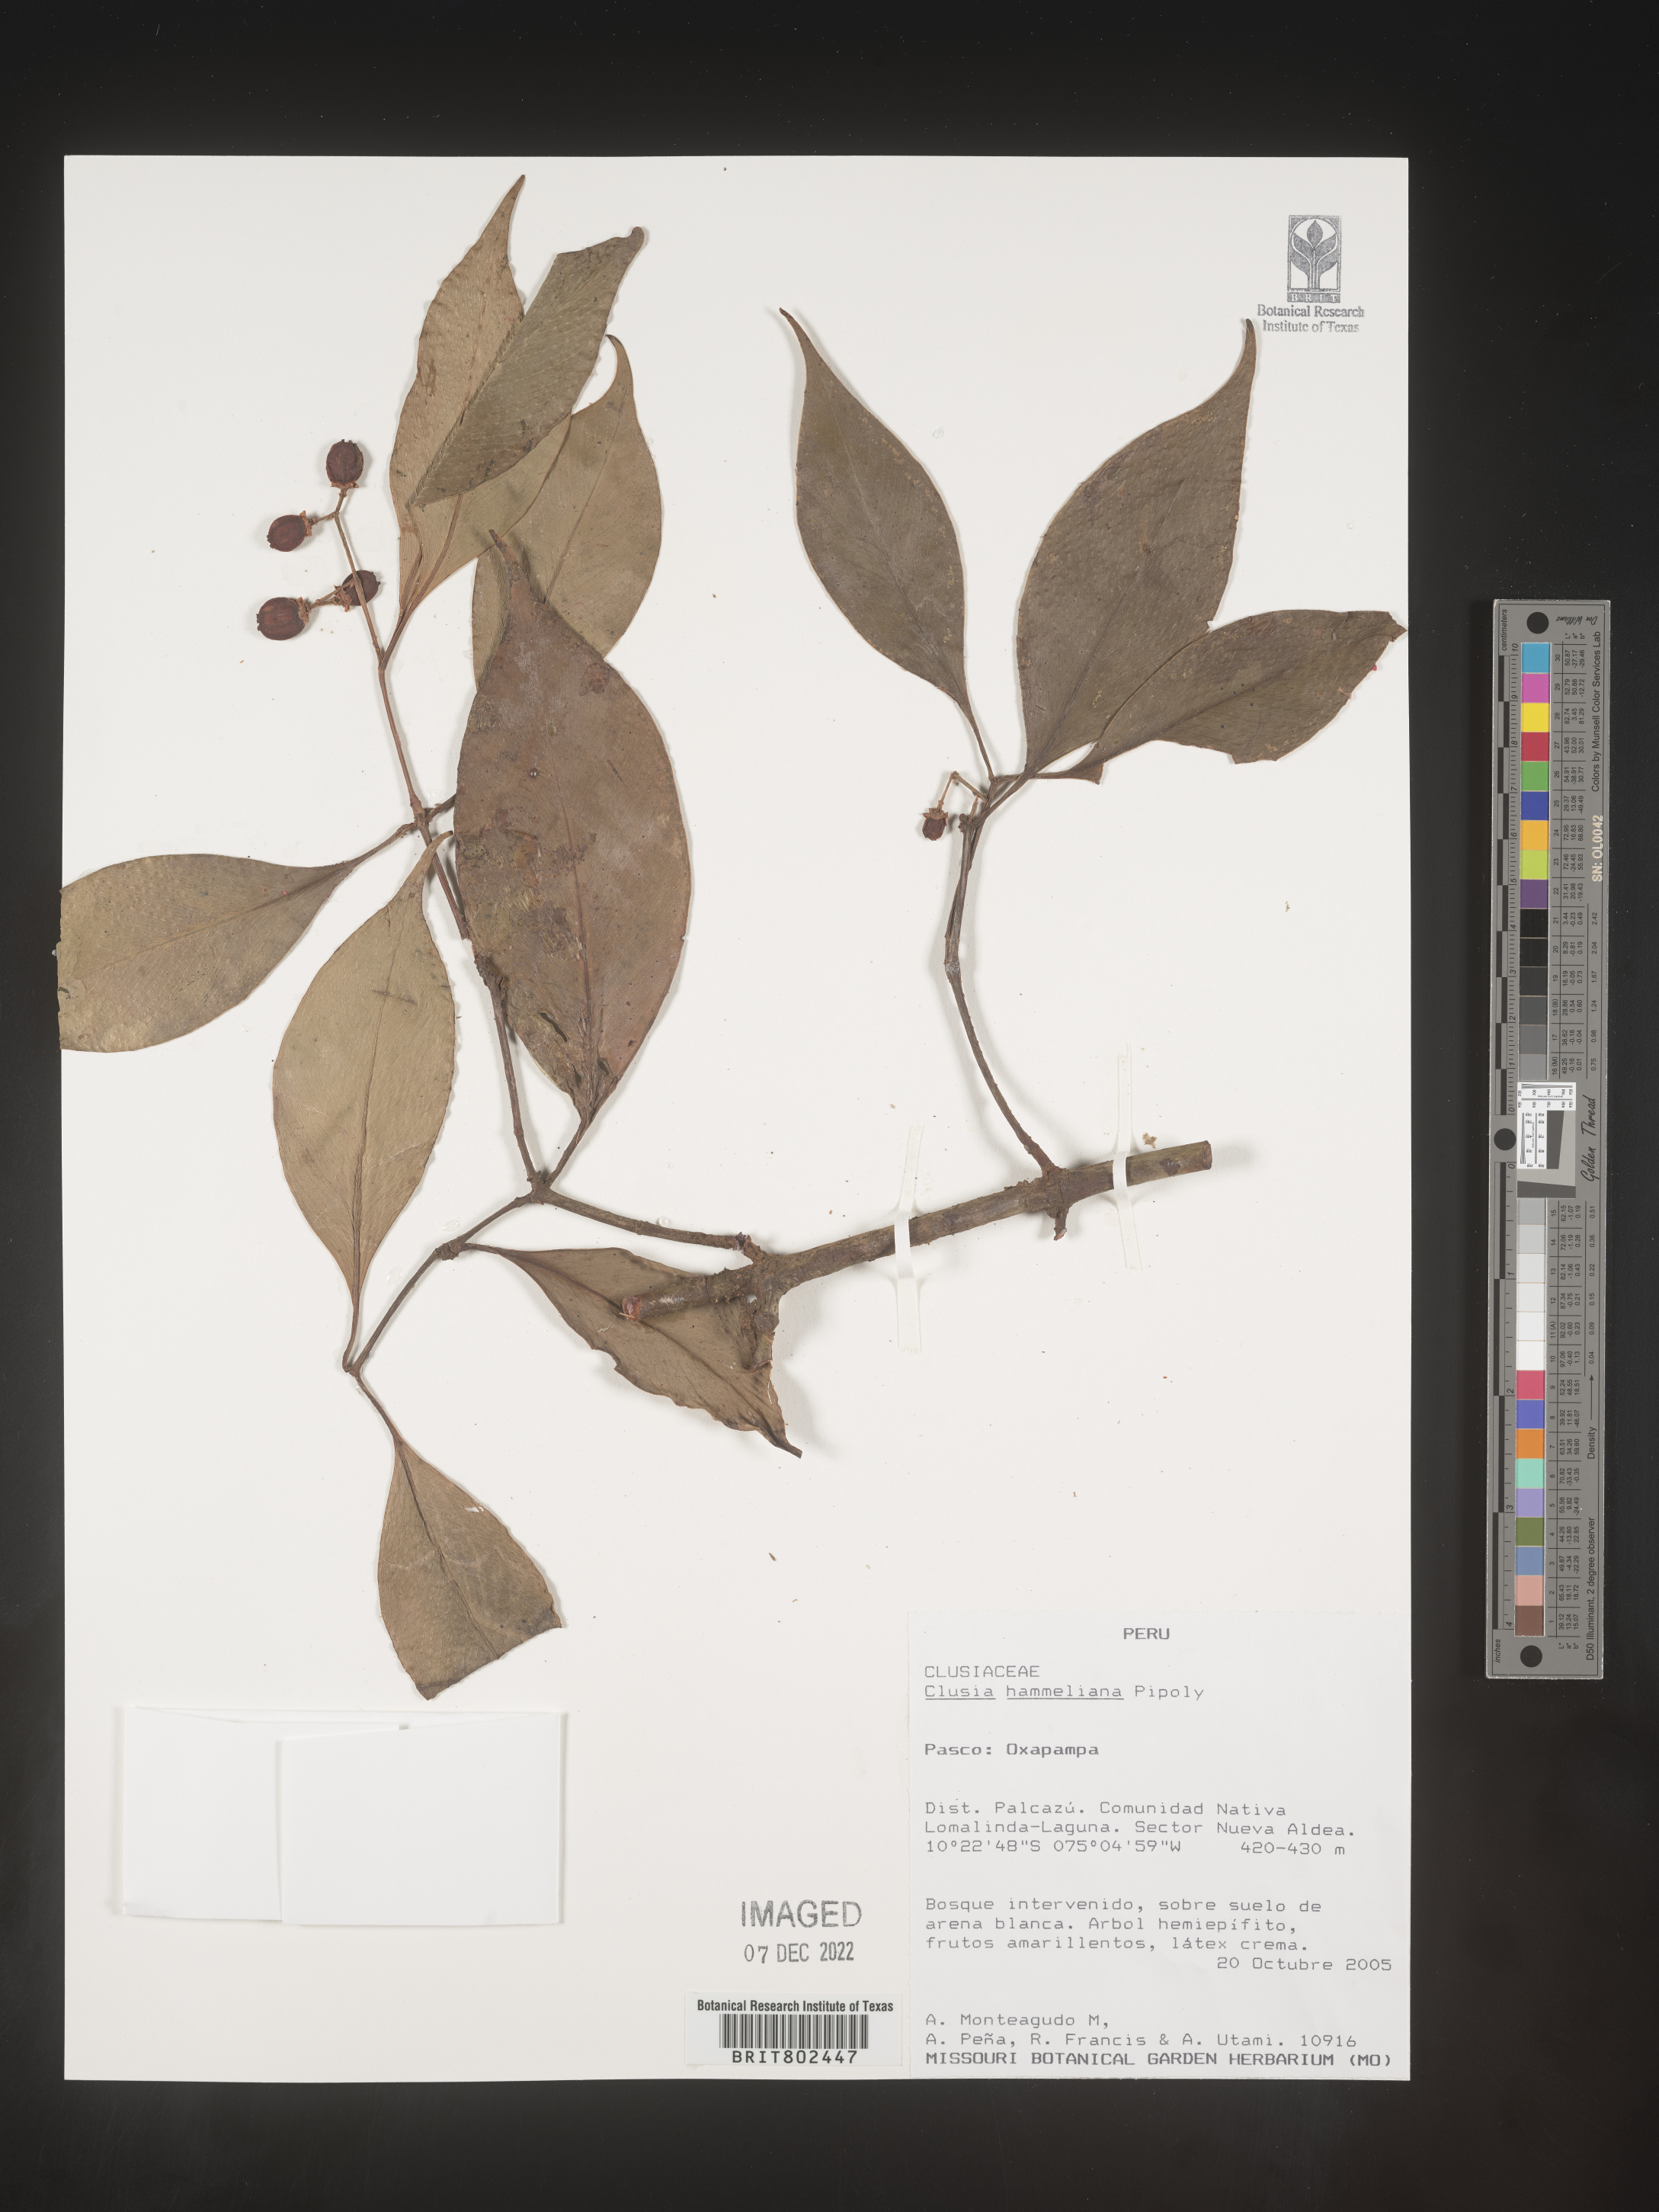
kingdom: Plantae
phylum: Tracheophyta
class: Magnoliopsida
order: Malpighiales
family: Clusiaceae
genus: Clusia
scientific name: Clusia hammeliana
